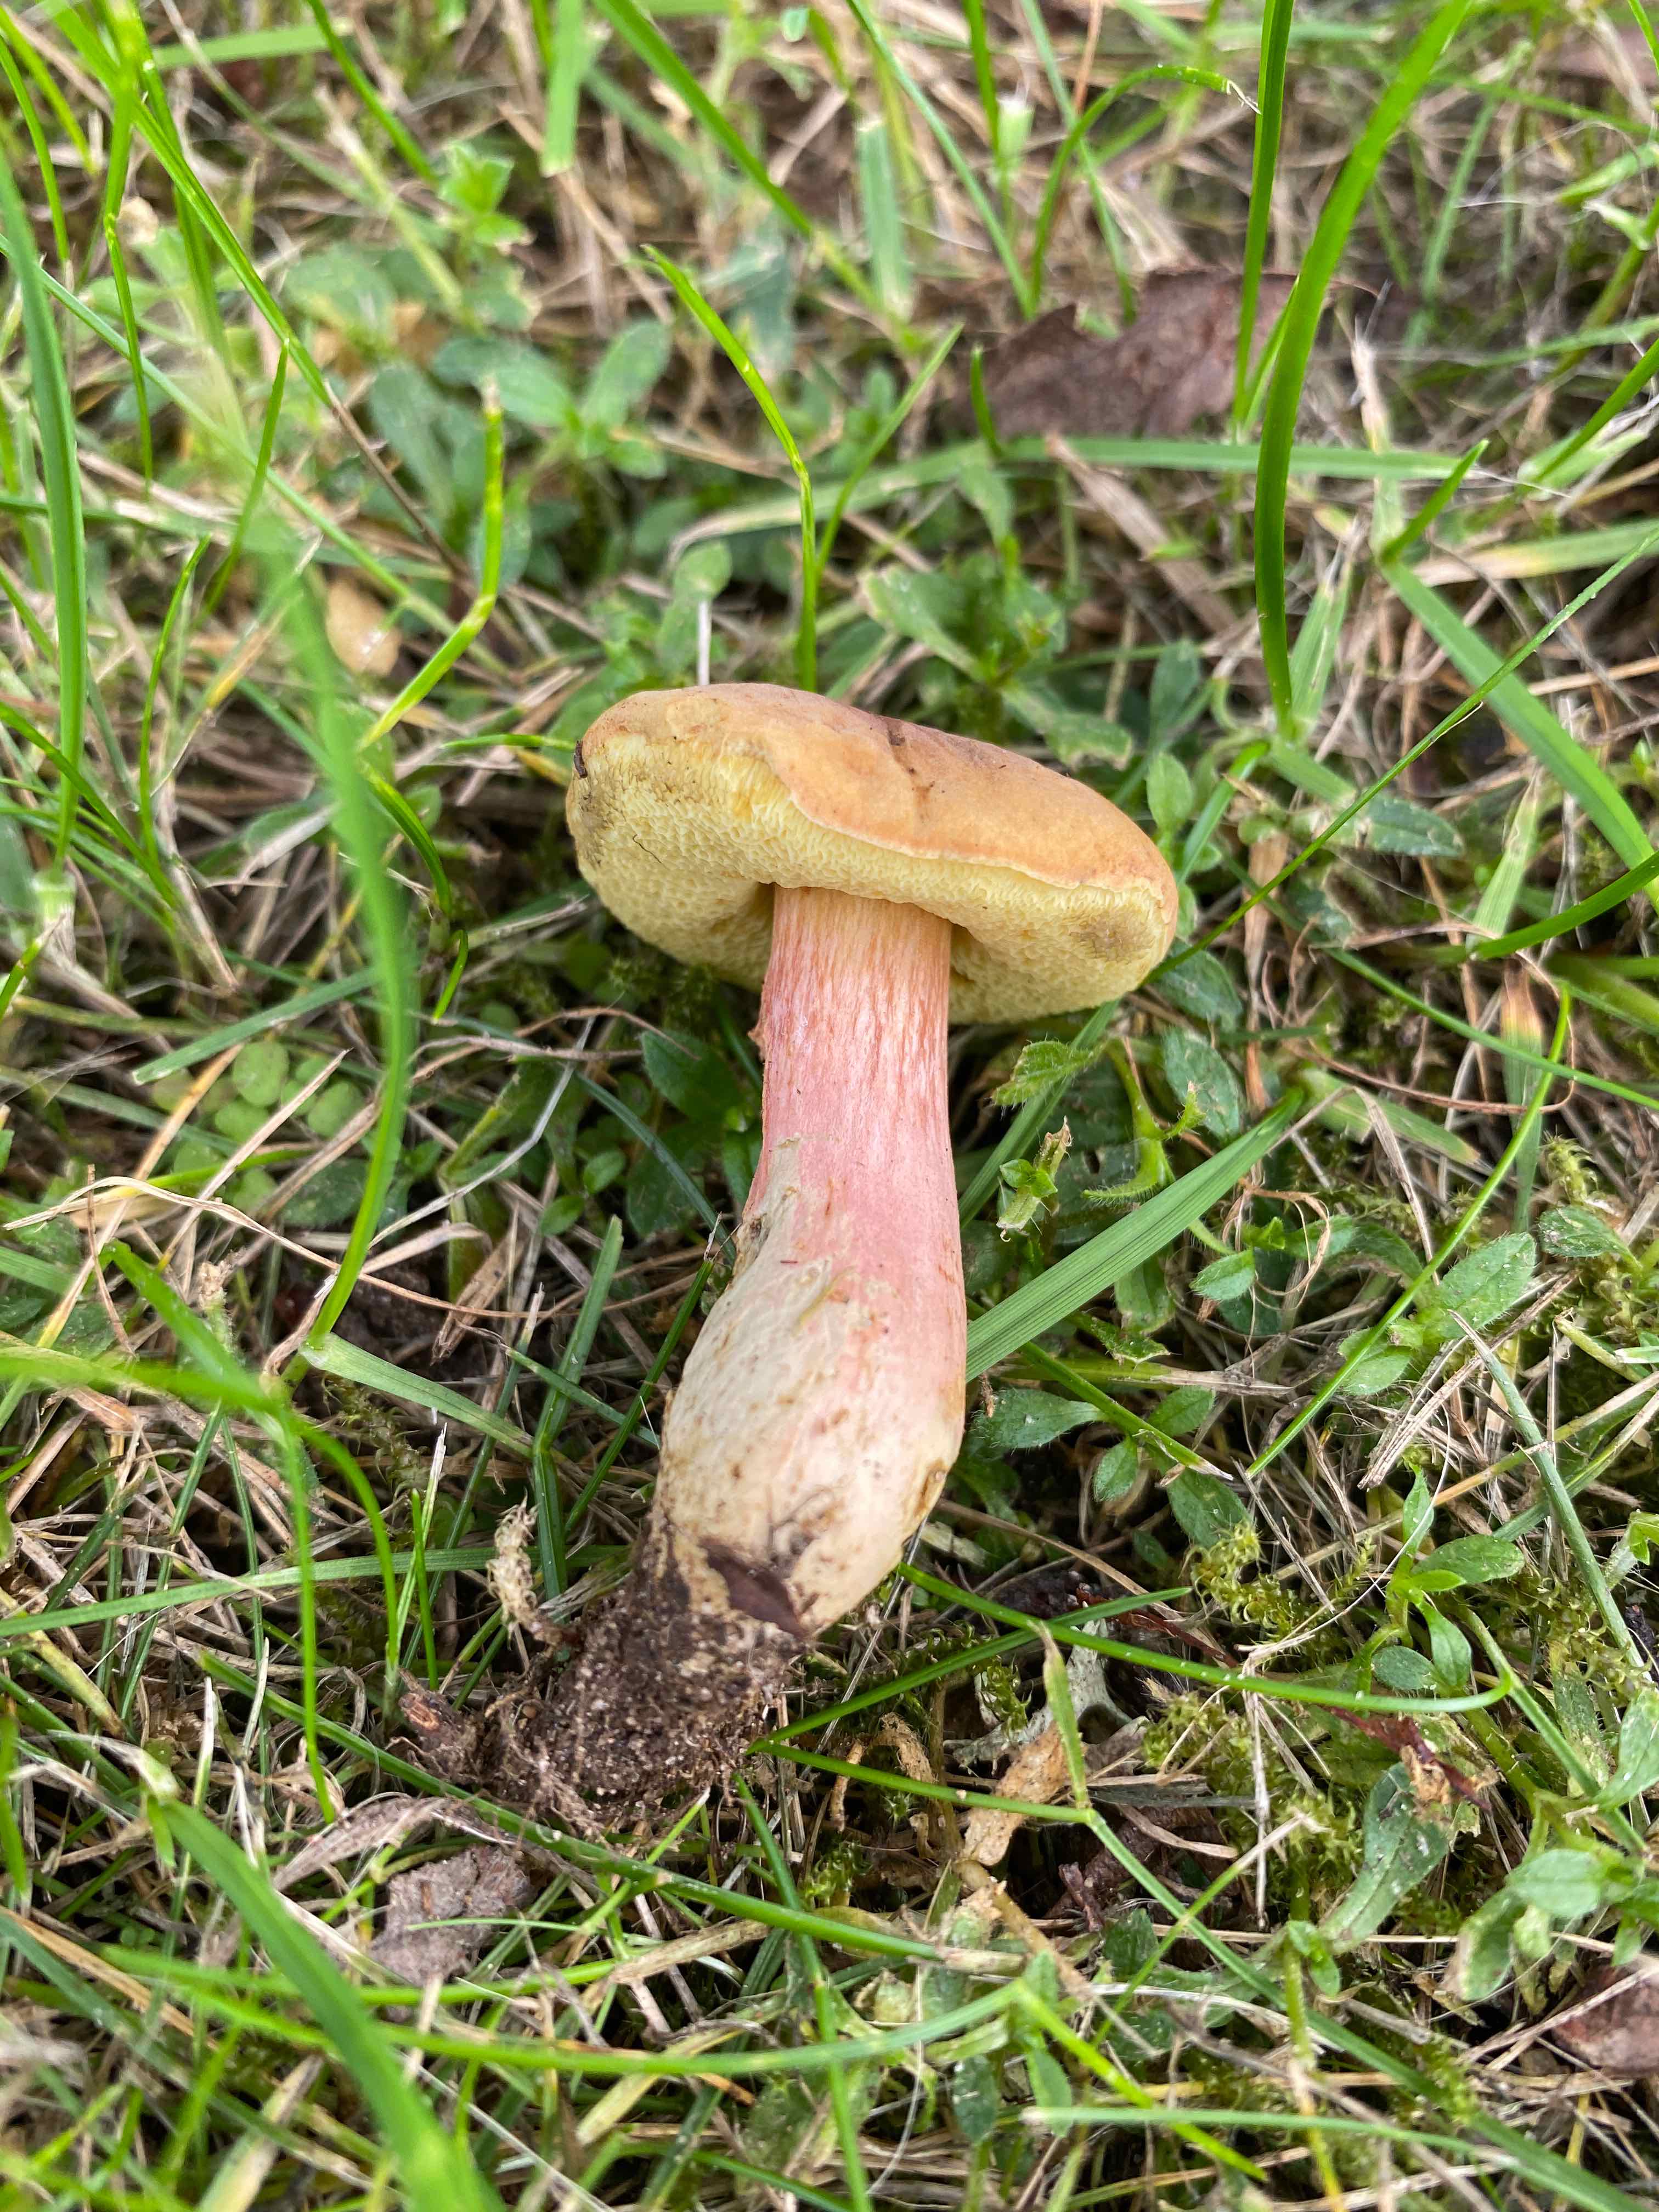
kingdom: Fungi
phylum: Basidiomycota
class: Agaricomycetes
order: Boletales
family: Boletaceae
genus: Hortiboletus
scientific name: Hortiboletus bubalinus
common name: aurora-rørhat
